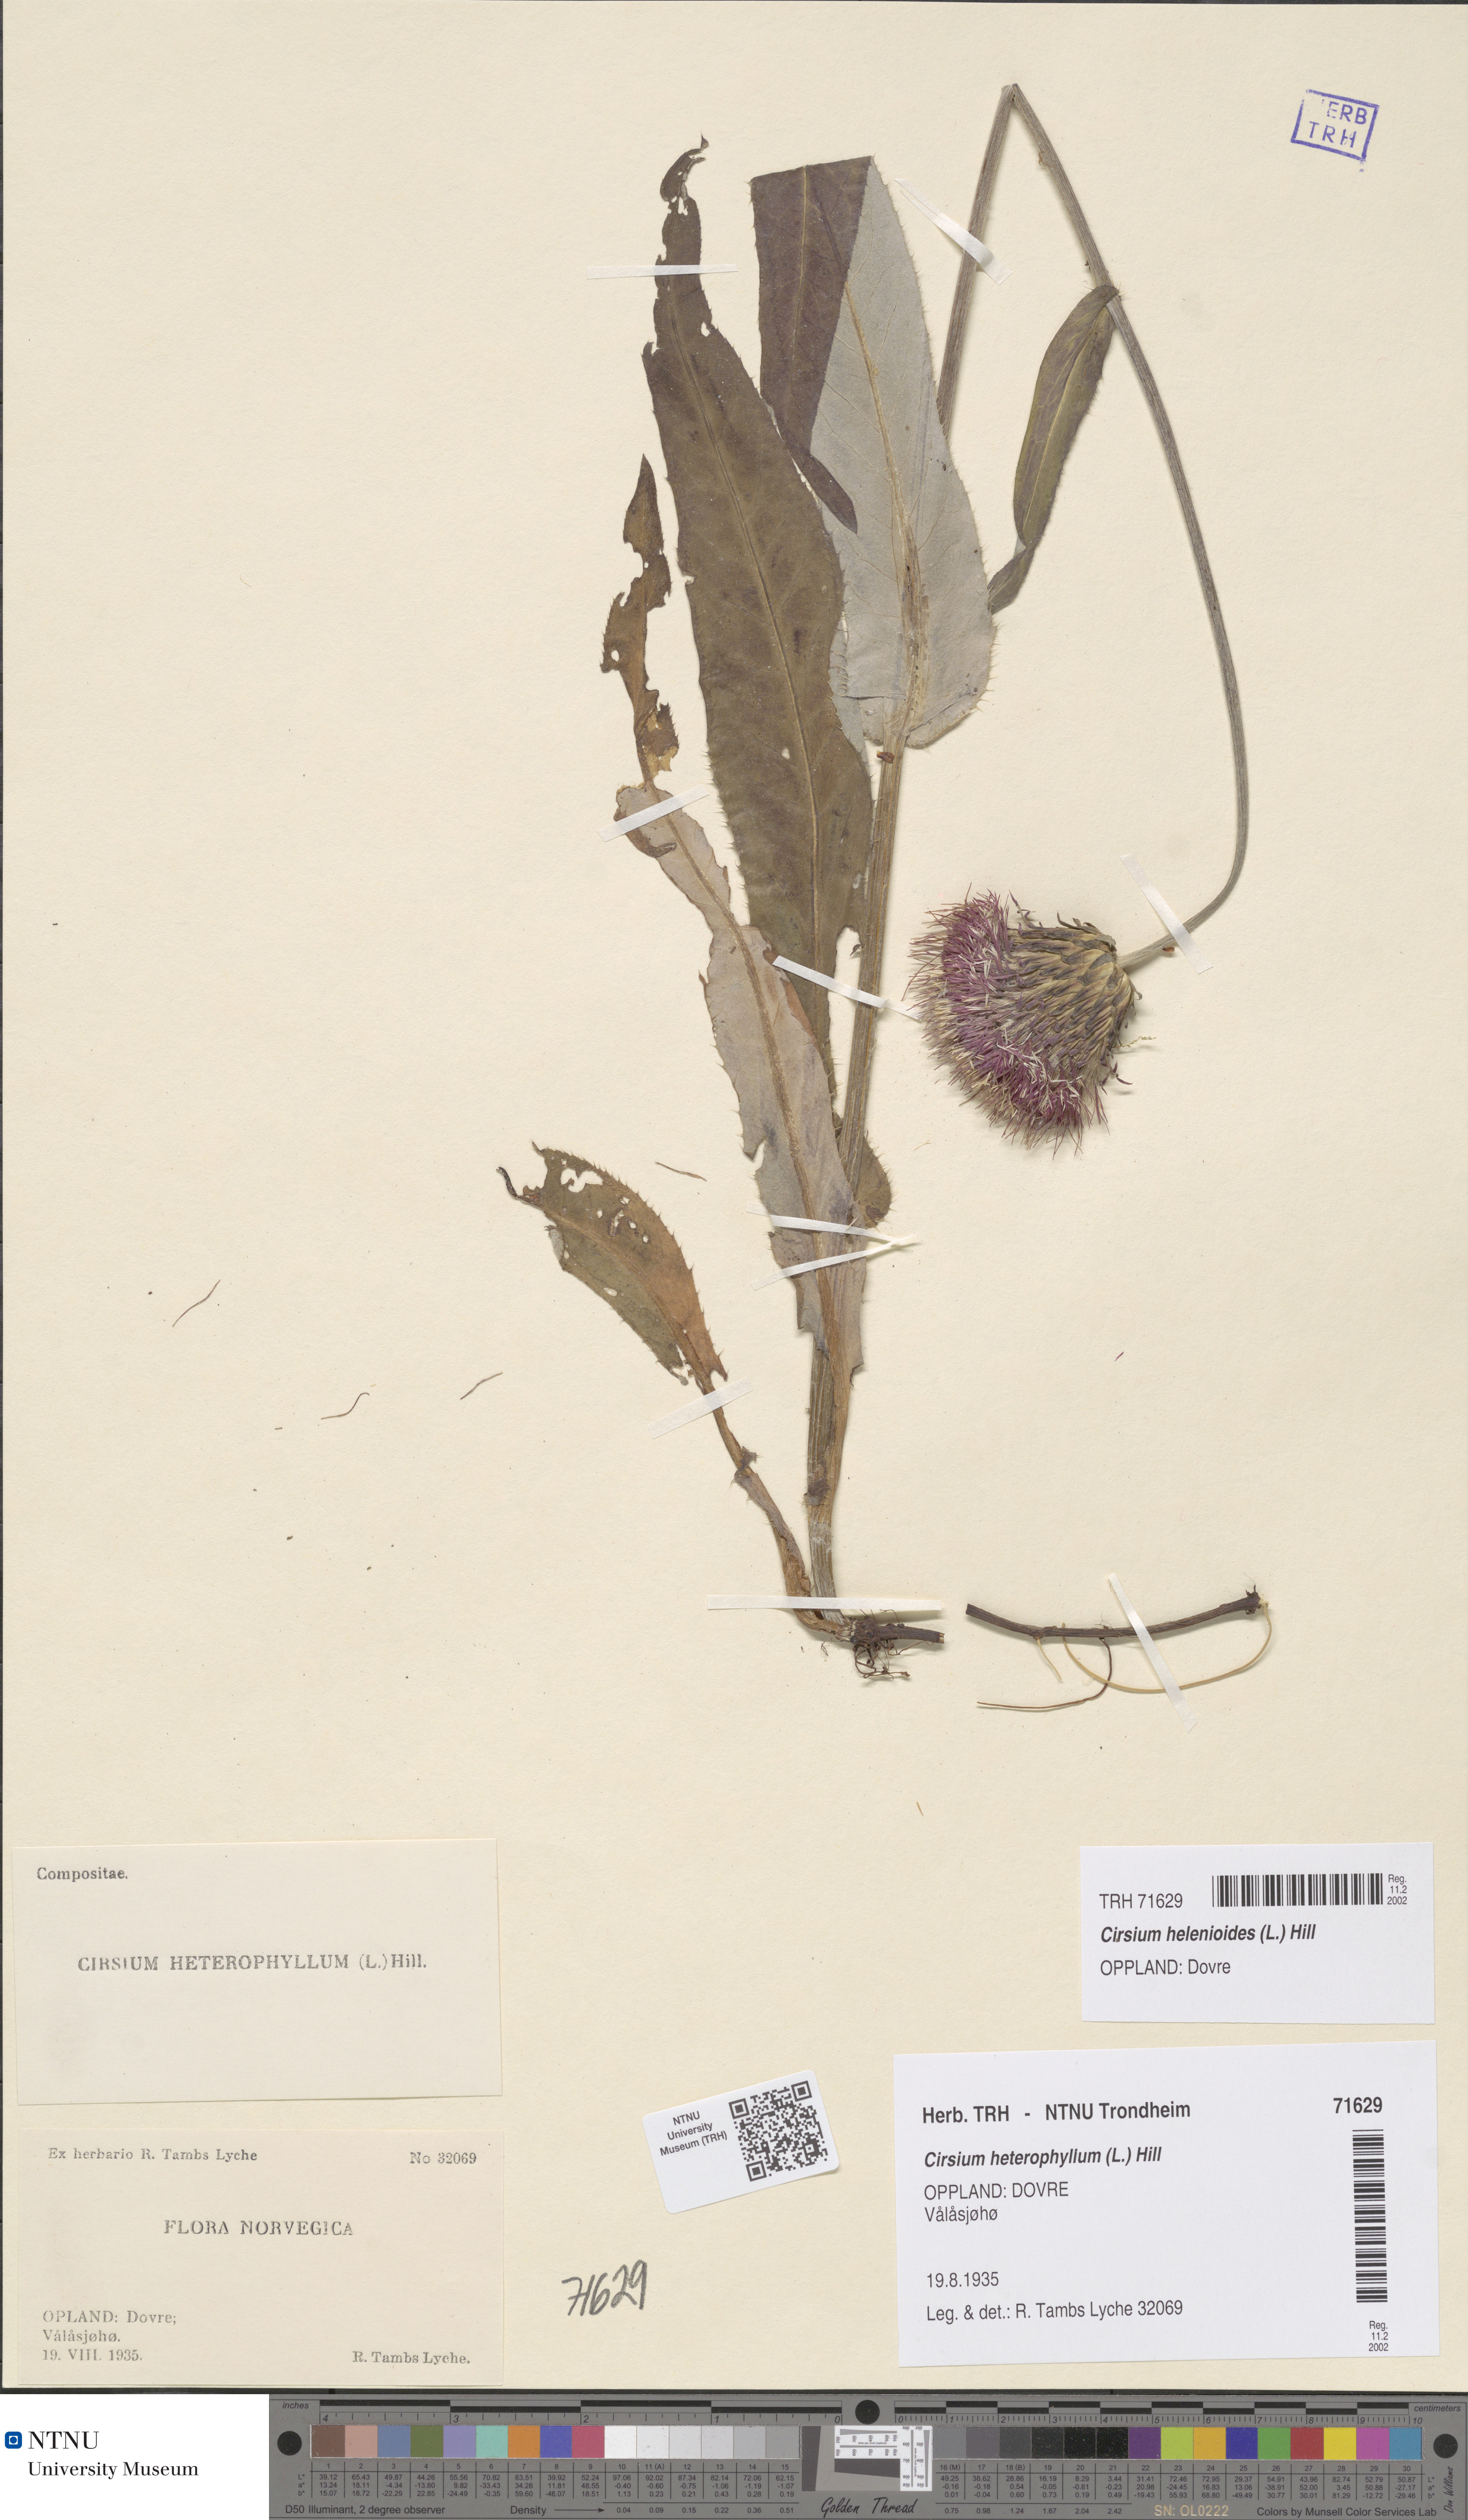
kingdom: Plantae
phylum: Tracheophyta
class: Magnoliopsida
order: Asterales
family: Asteraceae
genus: Cirsium
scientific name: Cirsium heterophyllum
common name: Melancholy thistle
